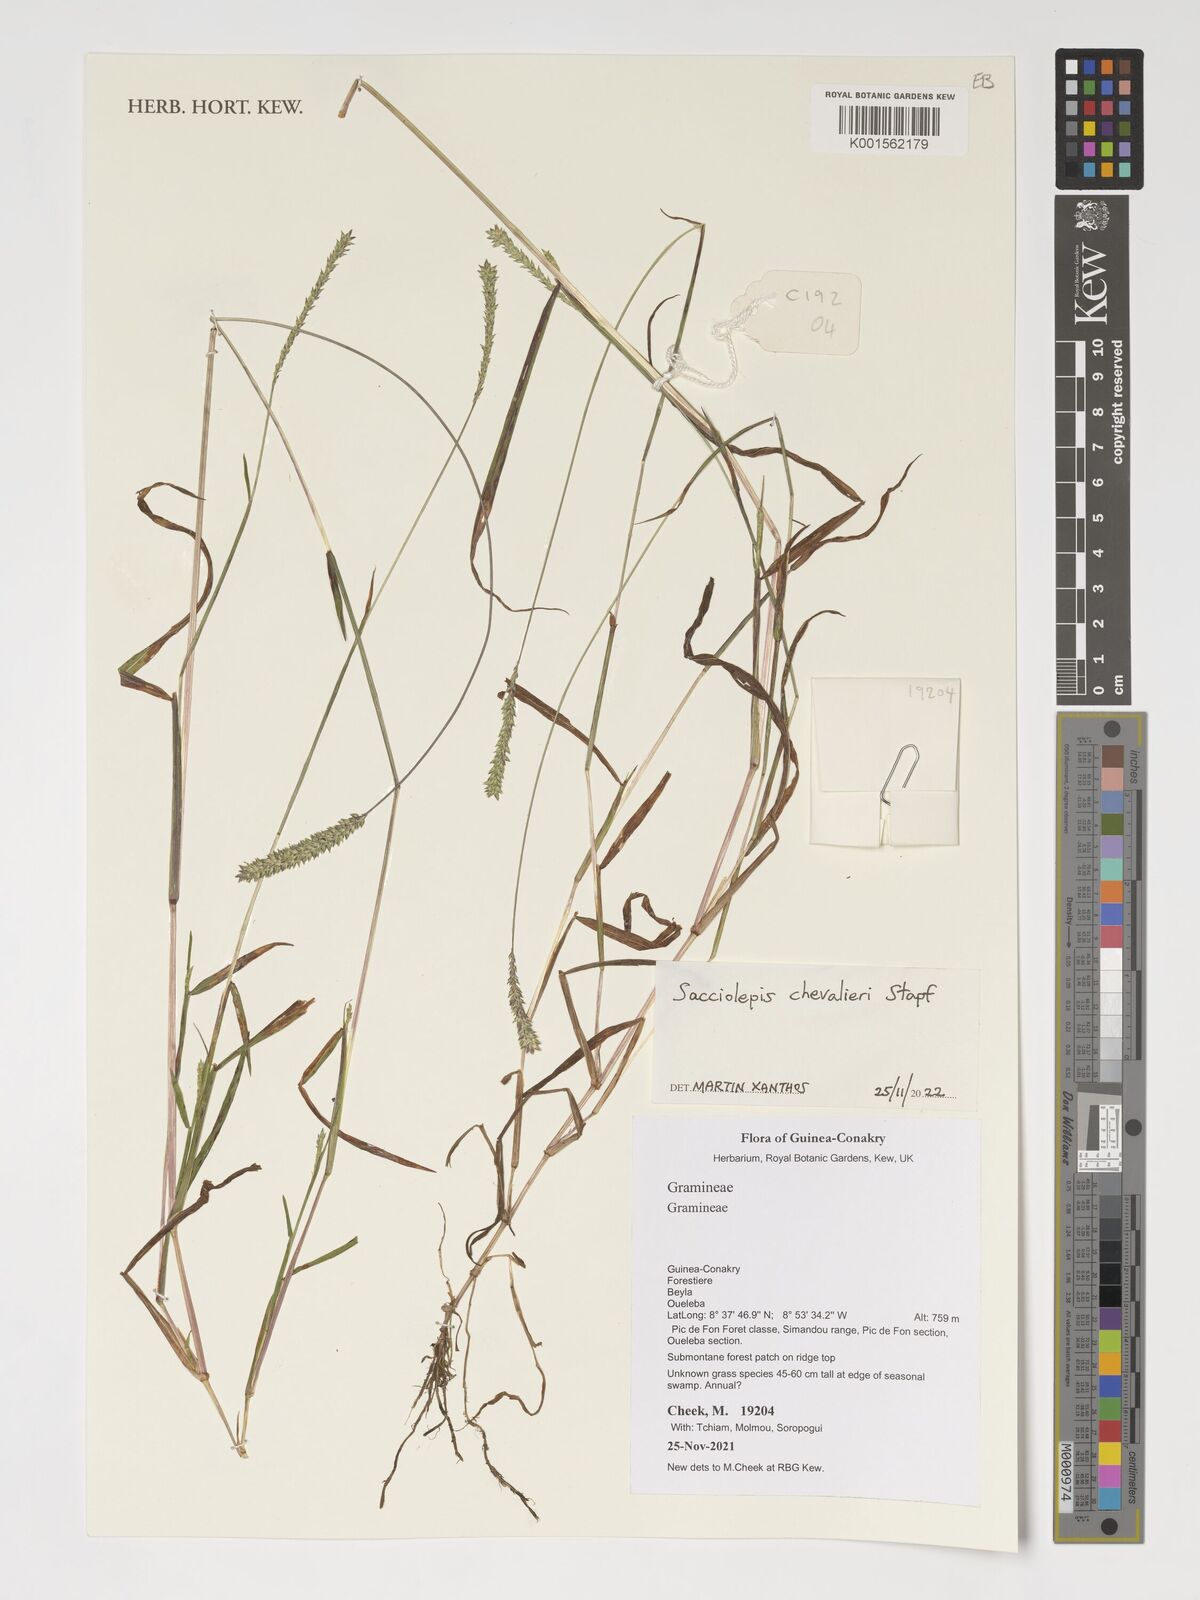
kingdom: Plantae
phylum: Tracheophyta
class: Liliopsida
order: Poales
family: Poaceae
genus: Sacciolepis
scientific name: Sacciolepis chevalieri
